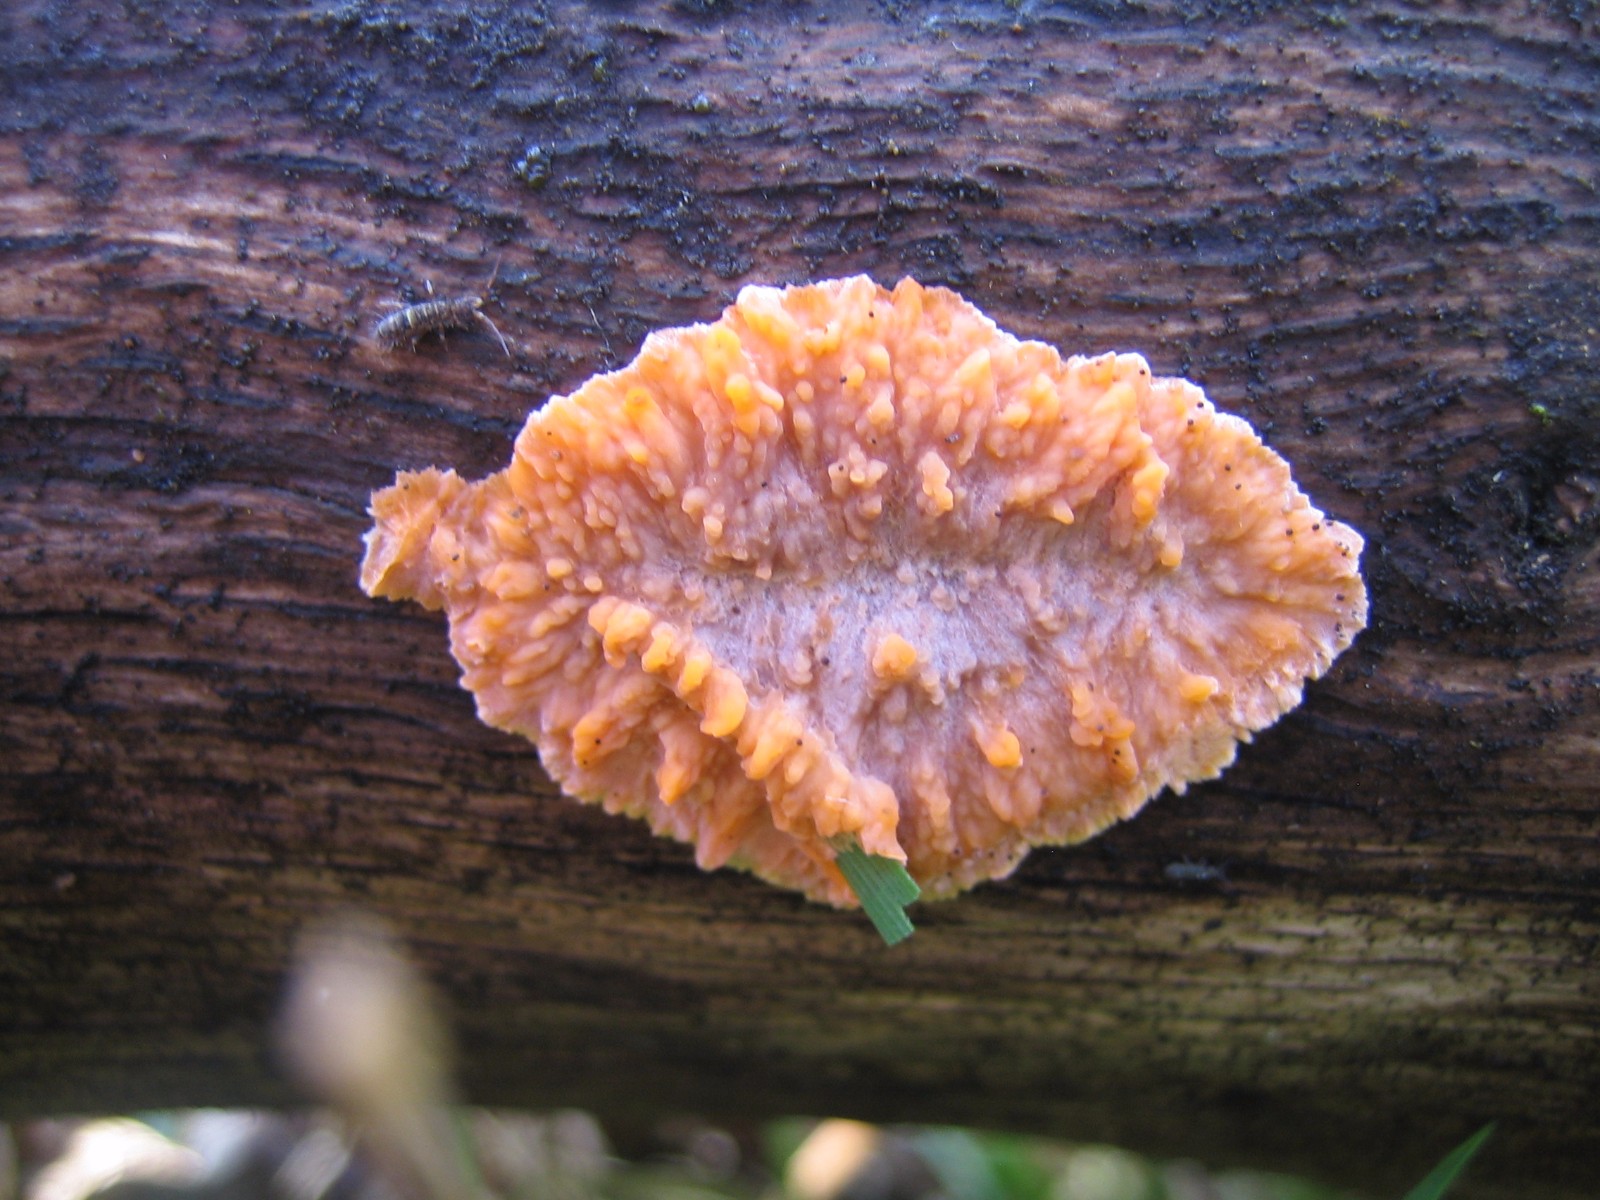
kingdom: Fungi
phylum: Basidiomycota
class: Agaricomycetes
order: Polyporales
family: Meruliaceae
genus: Phlebia
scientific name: Phlebia radiata
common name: stråle-åresvamp
